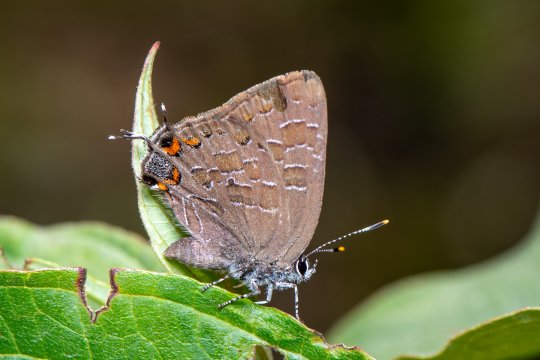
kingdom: Animalia
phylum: Arthropoda
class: Insecta
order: Lepidoptera
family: Lycaenidae
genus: Satyrium
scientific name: Satyrium liparops
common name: Striped Hairstreak
